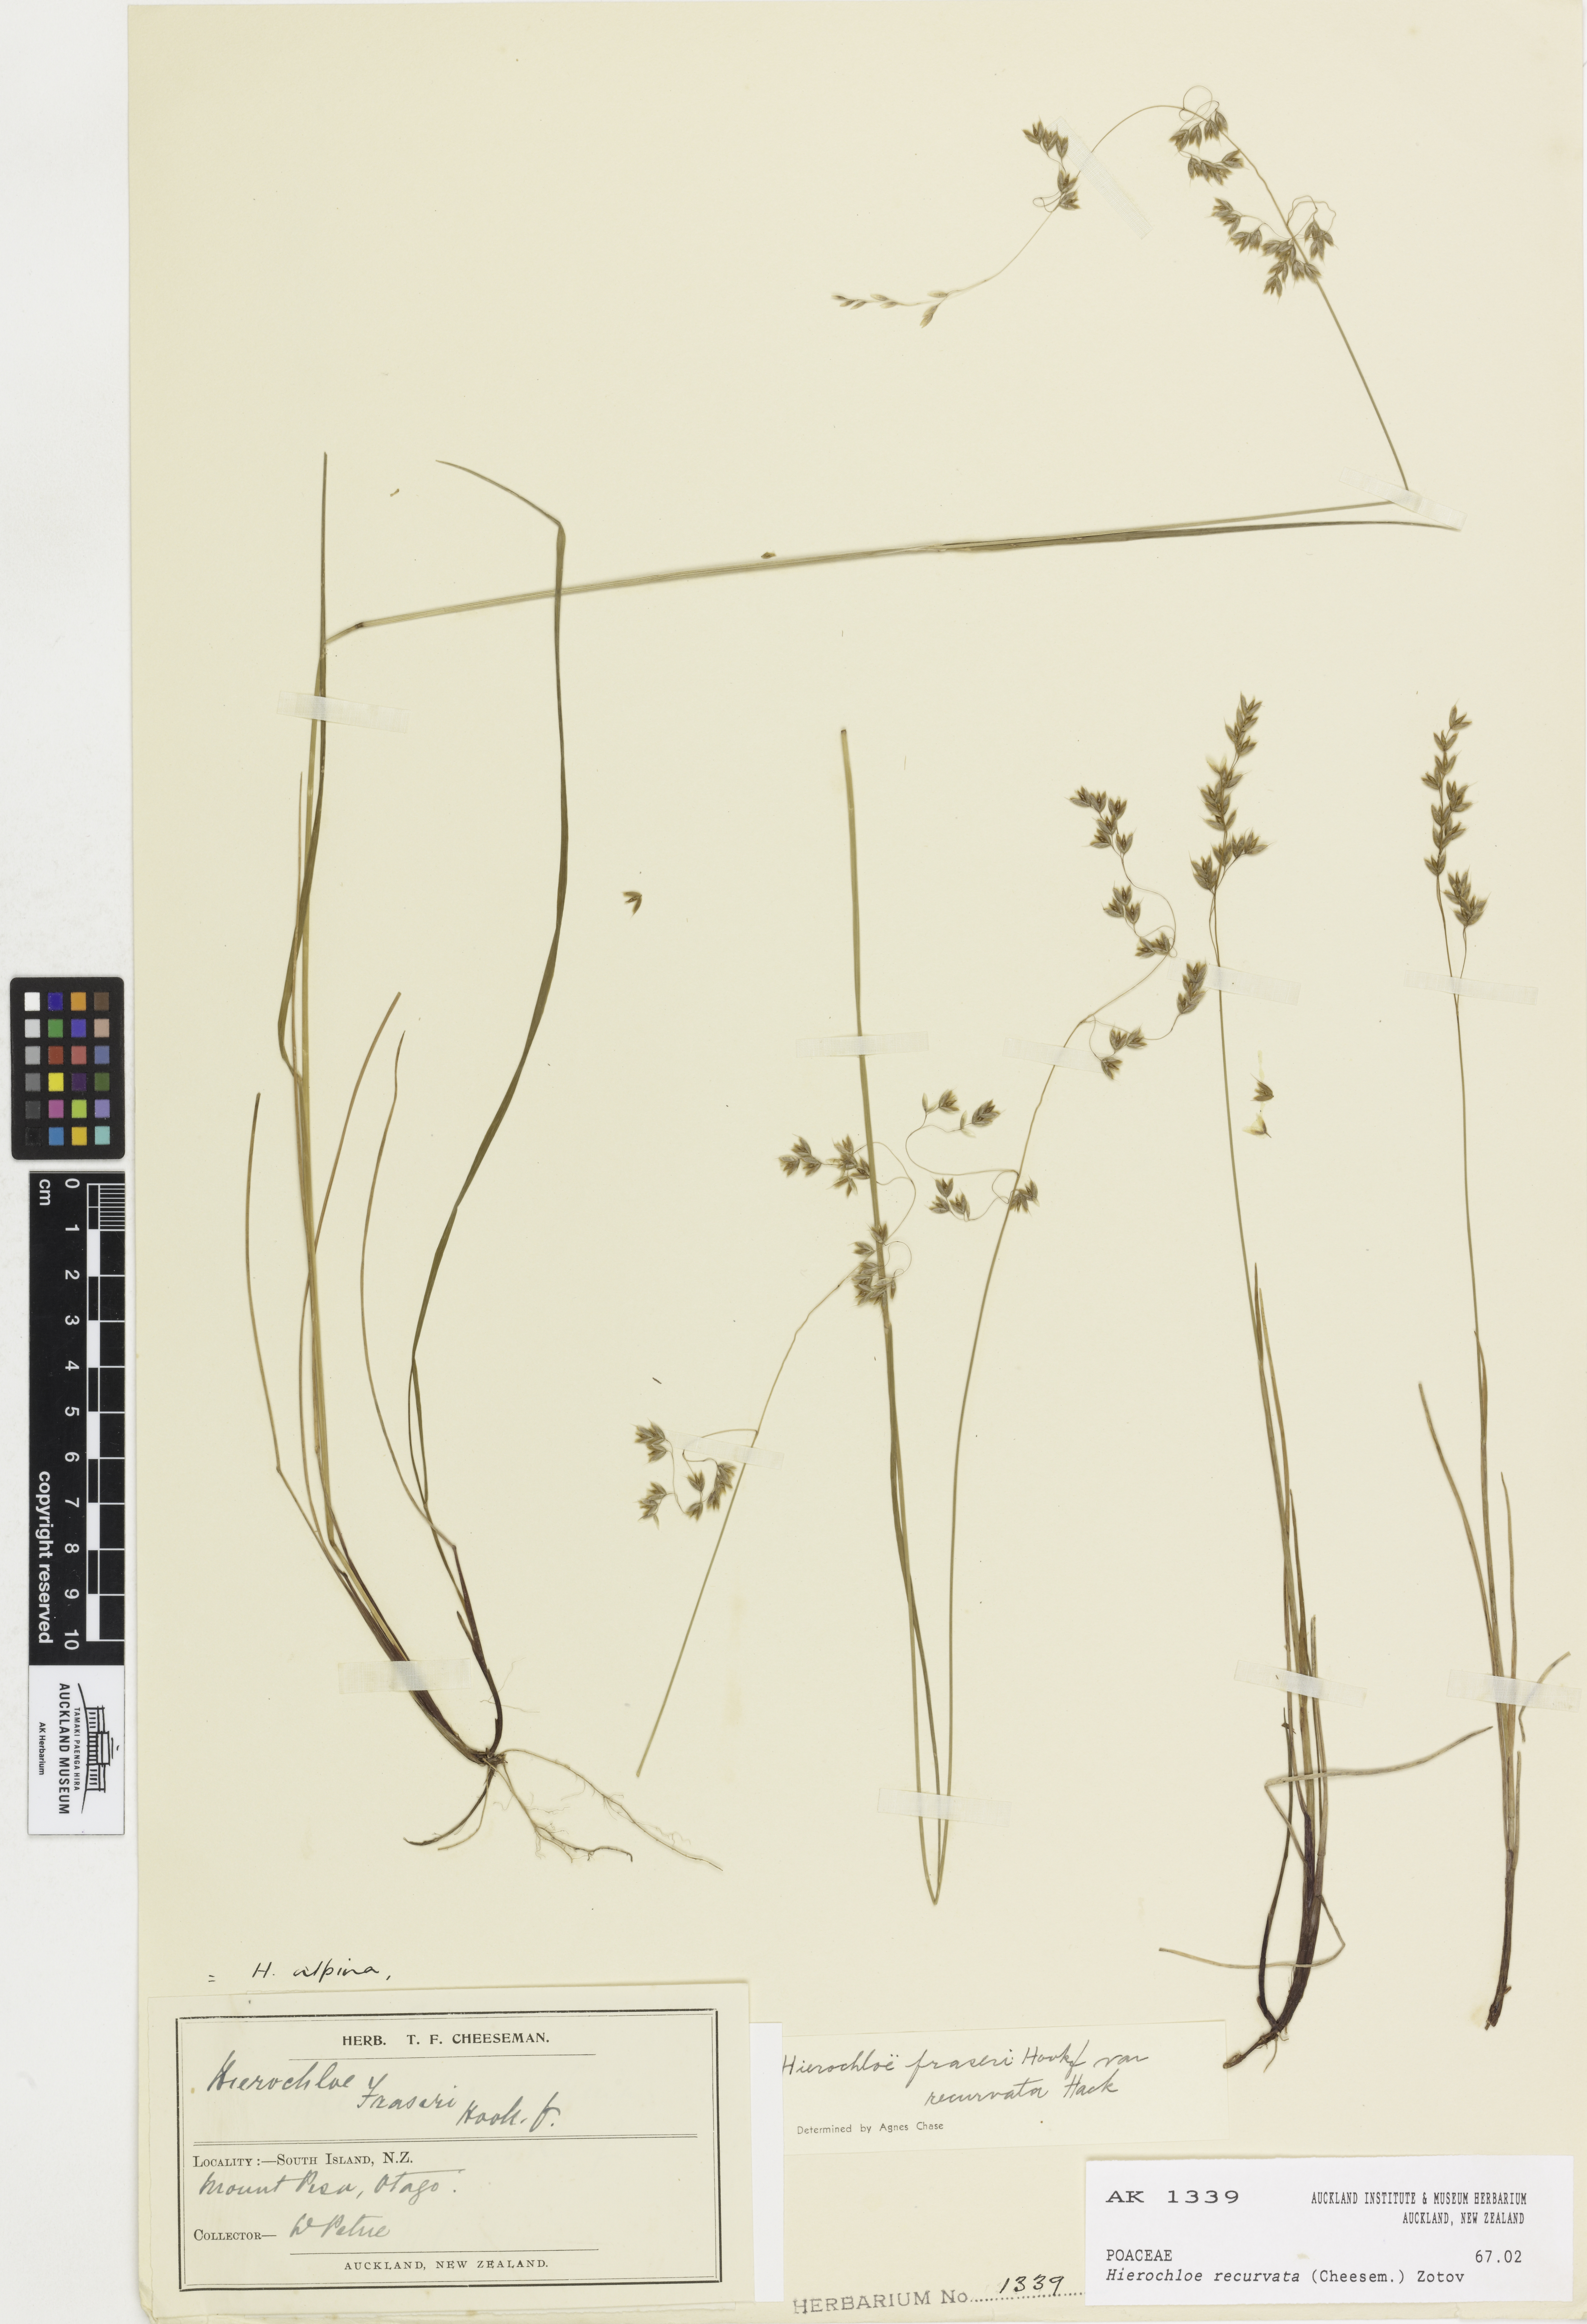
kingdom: Plantae
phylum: Tracheophyta
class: Liliopsida
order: Poales
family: Poaceae
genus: Anthoxanthum
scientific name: Anthoxanthum recurvatum
